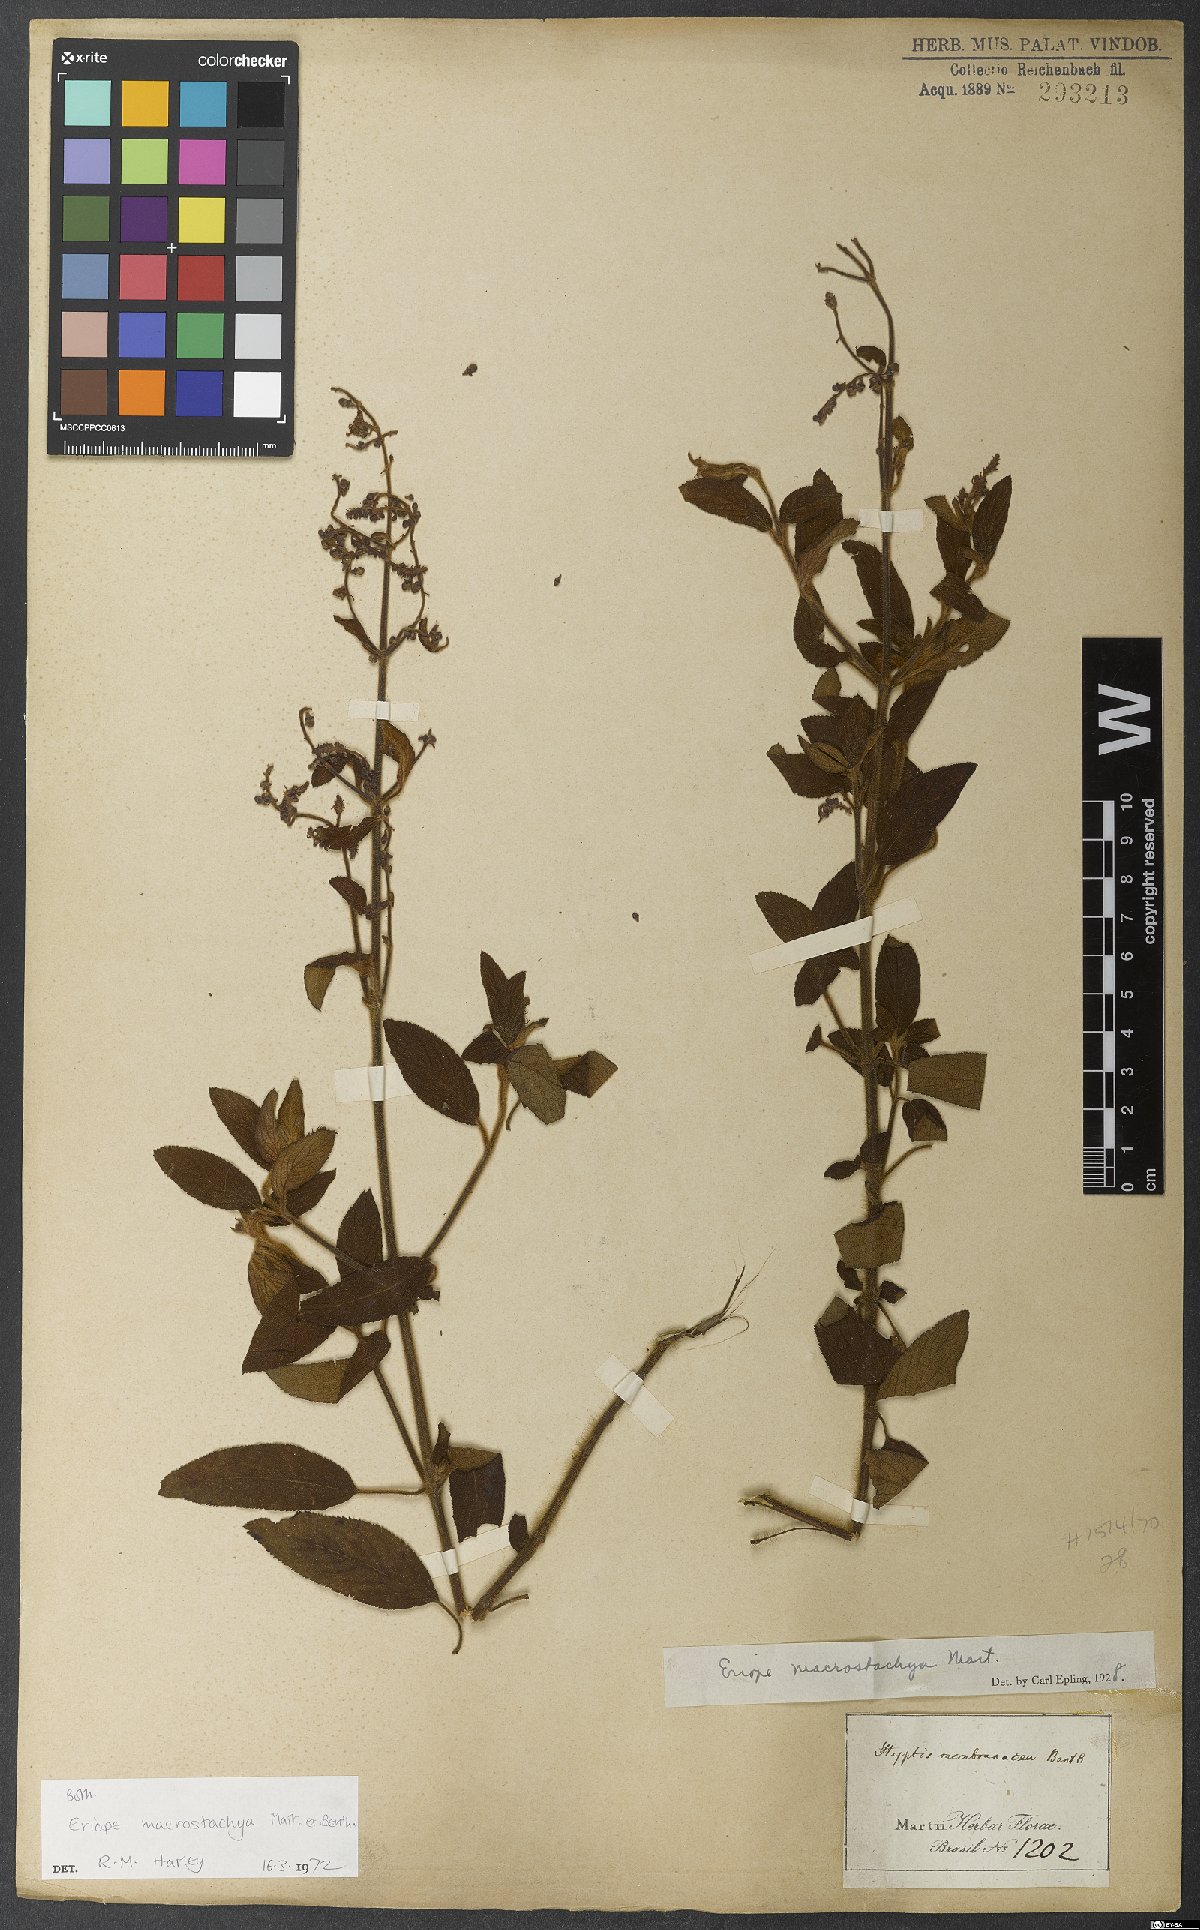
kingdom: Plantae
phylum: Tracheophyta
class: Magnoliopsida
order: Lamiales
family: Lamiaceae
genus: Eriope
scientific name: Eriope macrostachya
